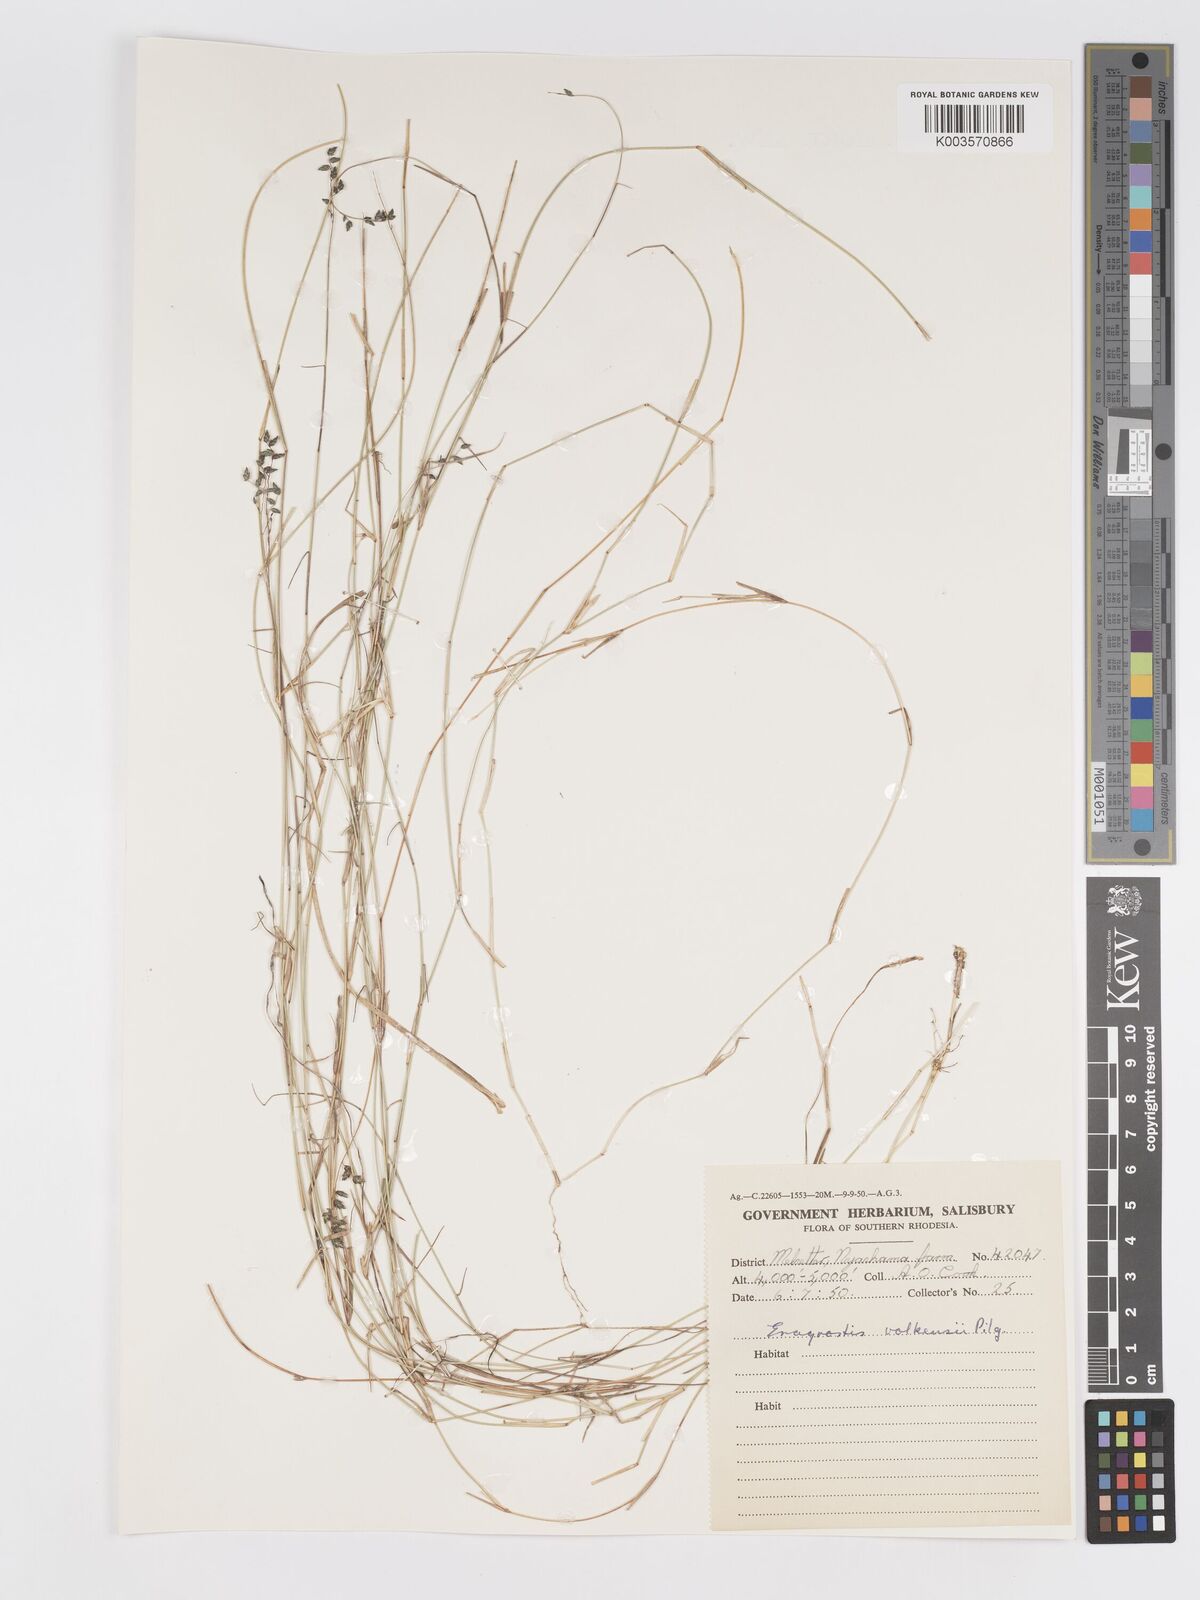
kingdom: Plantae
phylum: Tracheophyta
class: Liliopsida
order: Poales
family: Poaceae
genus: Eragrostis
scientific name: Eragrostis volkensii
